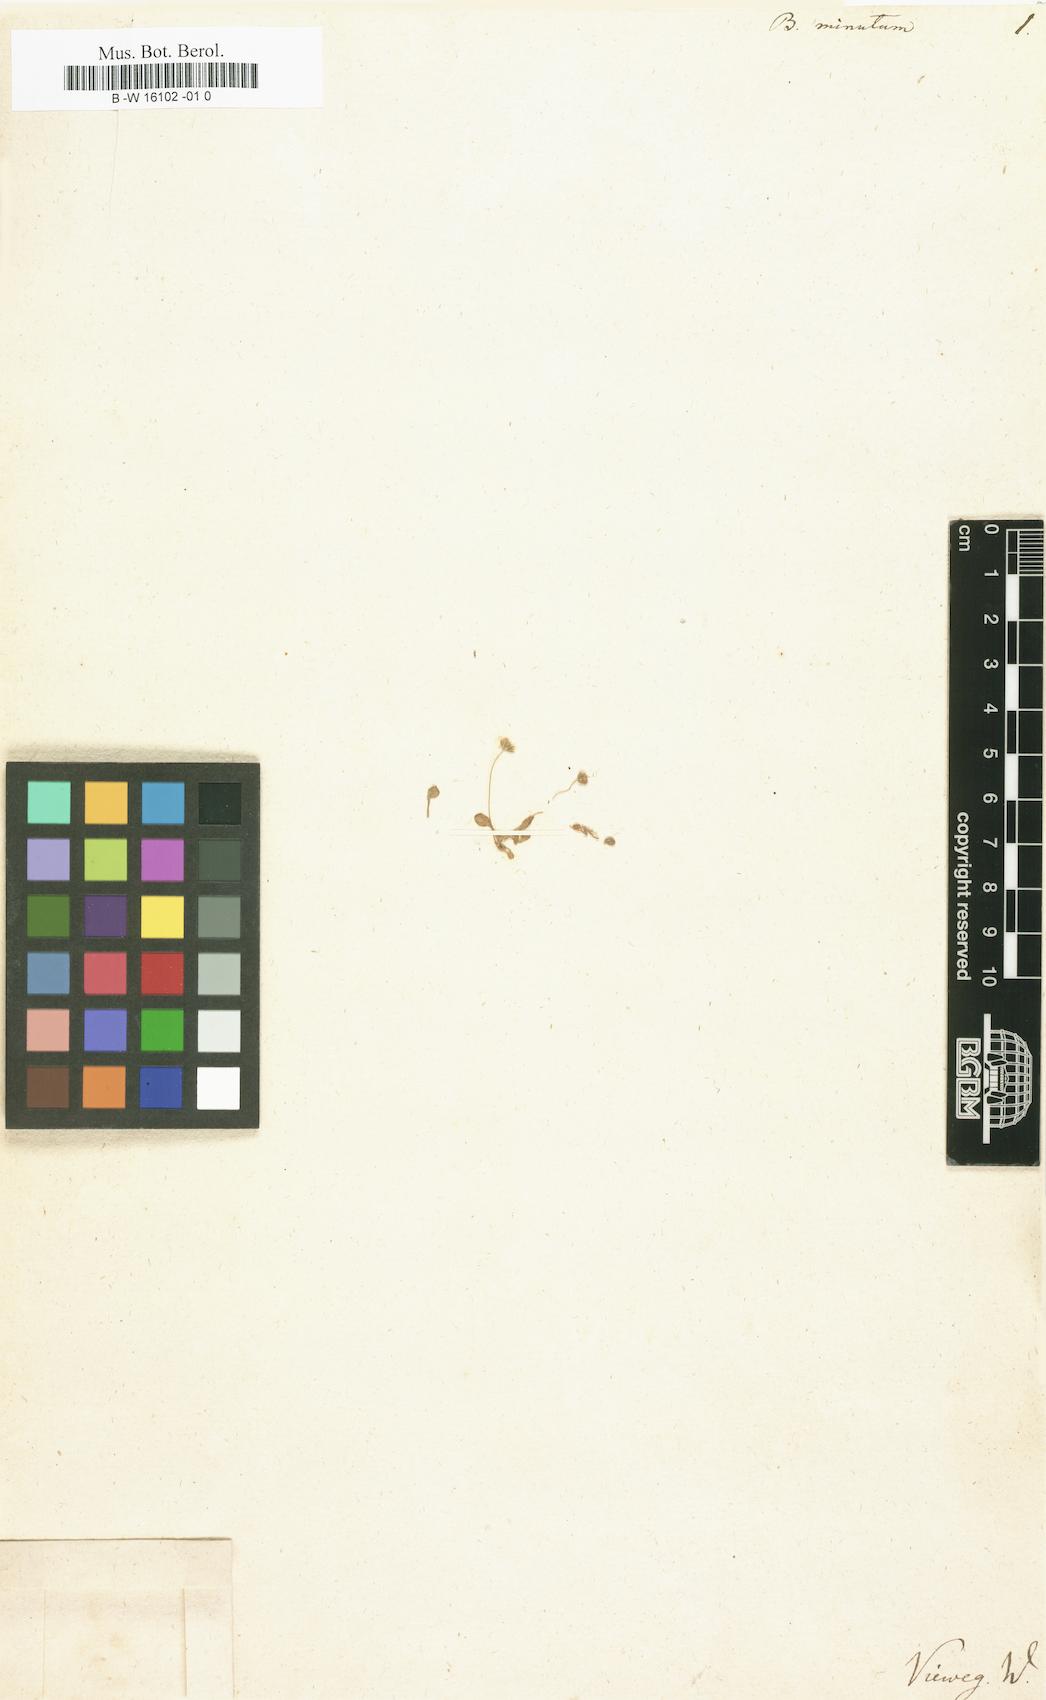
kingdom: Plantae
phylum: Tracheophyta
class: Magnoliopsida
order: Asterales
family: Asteraceae
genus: Bellium
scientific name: Bellium minutum
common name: Little-mary
